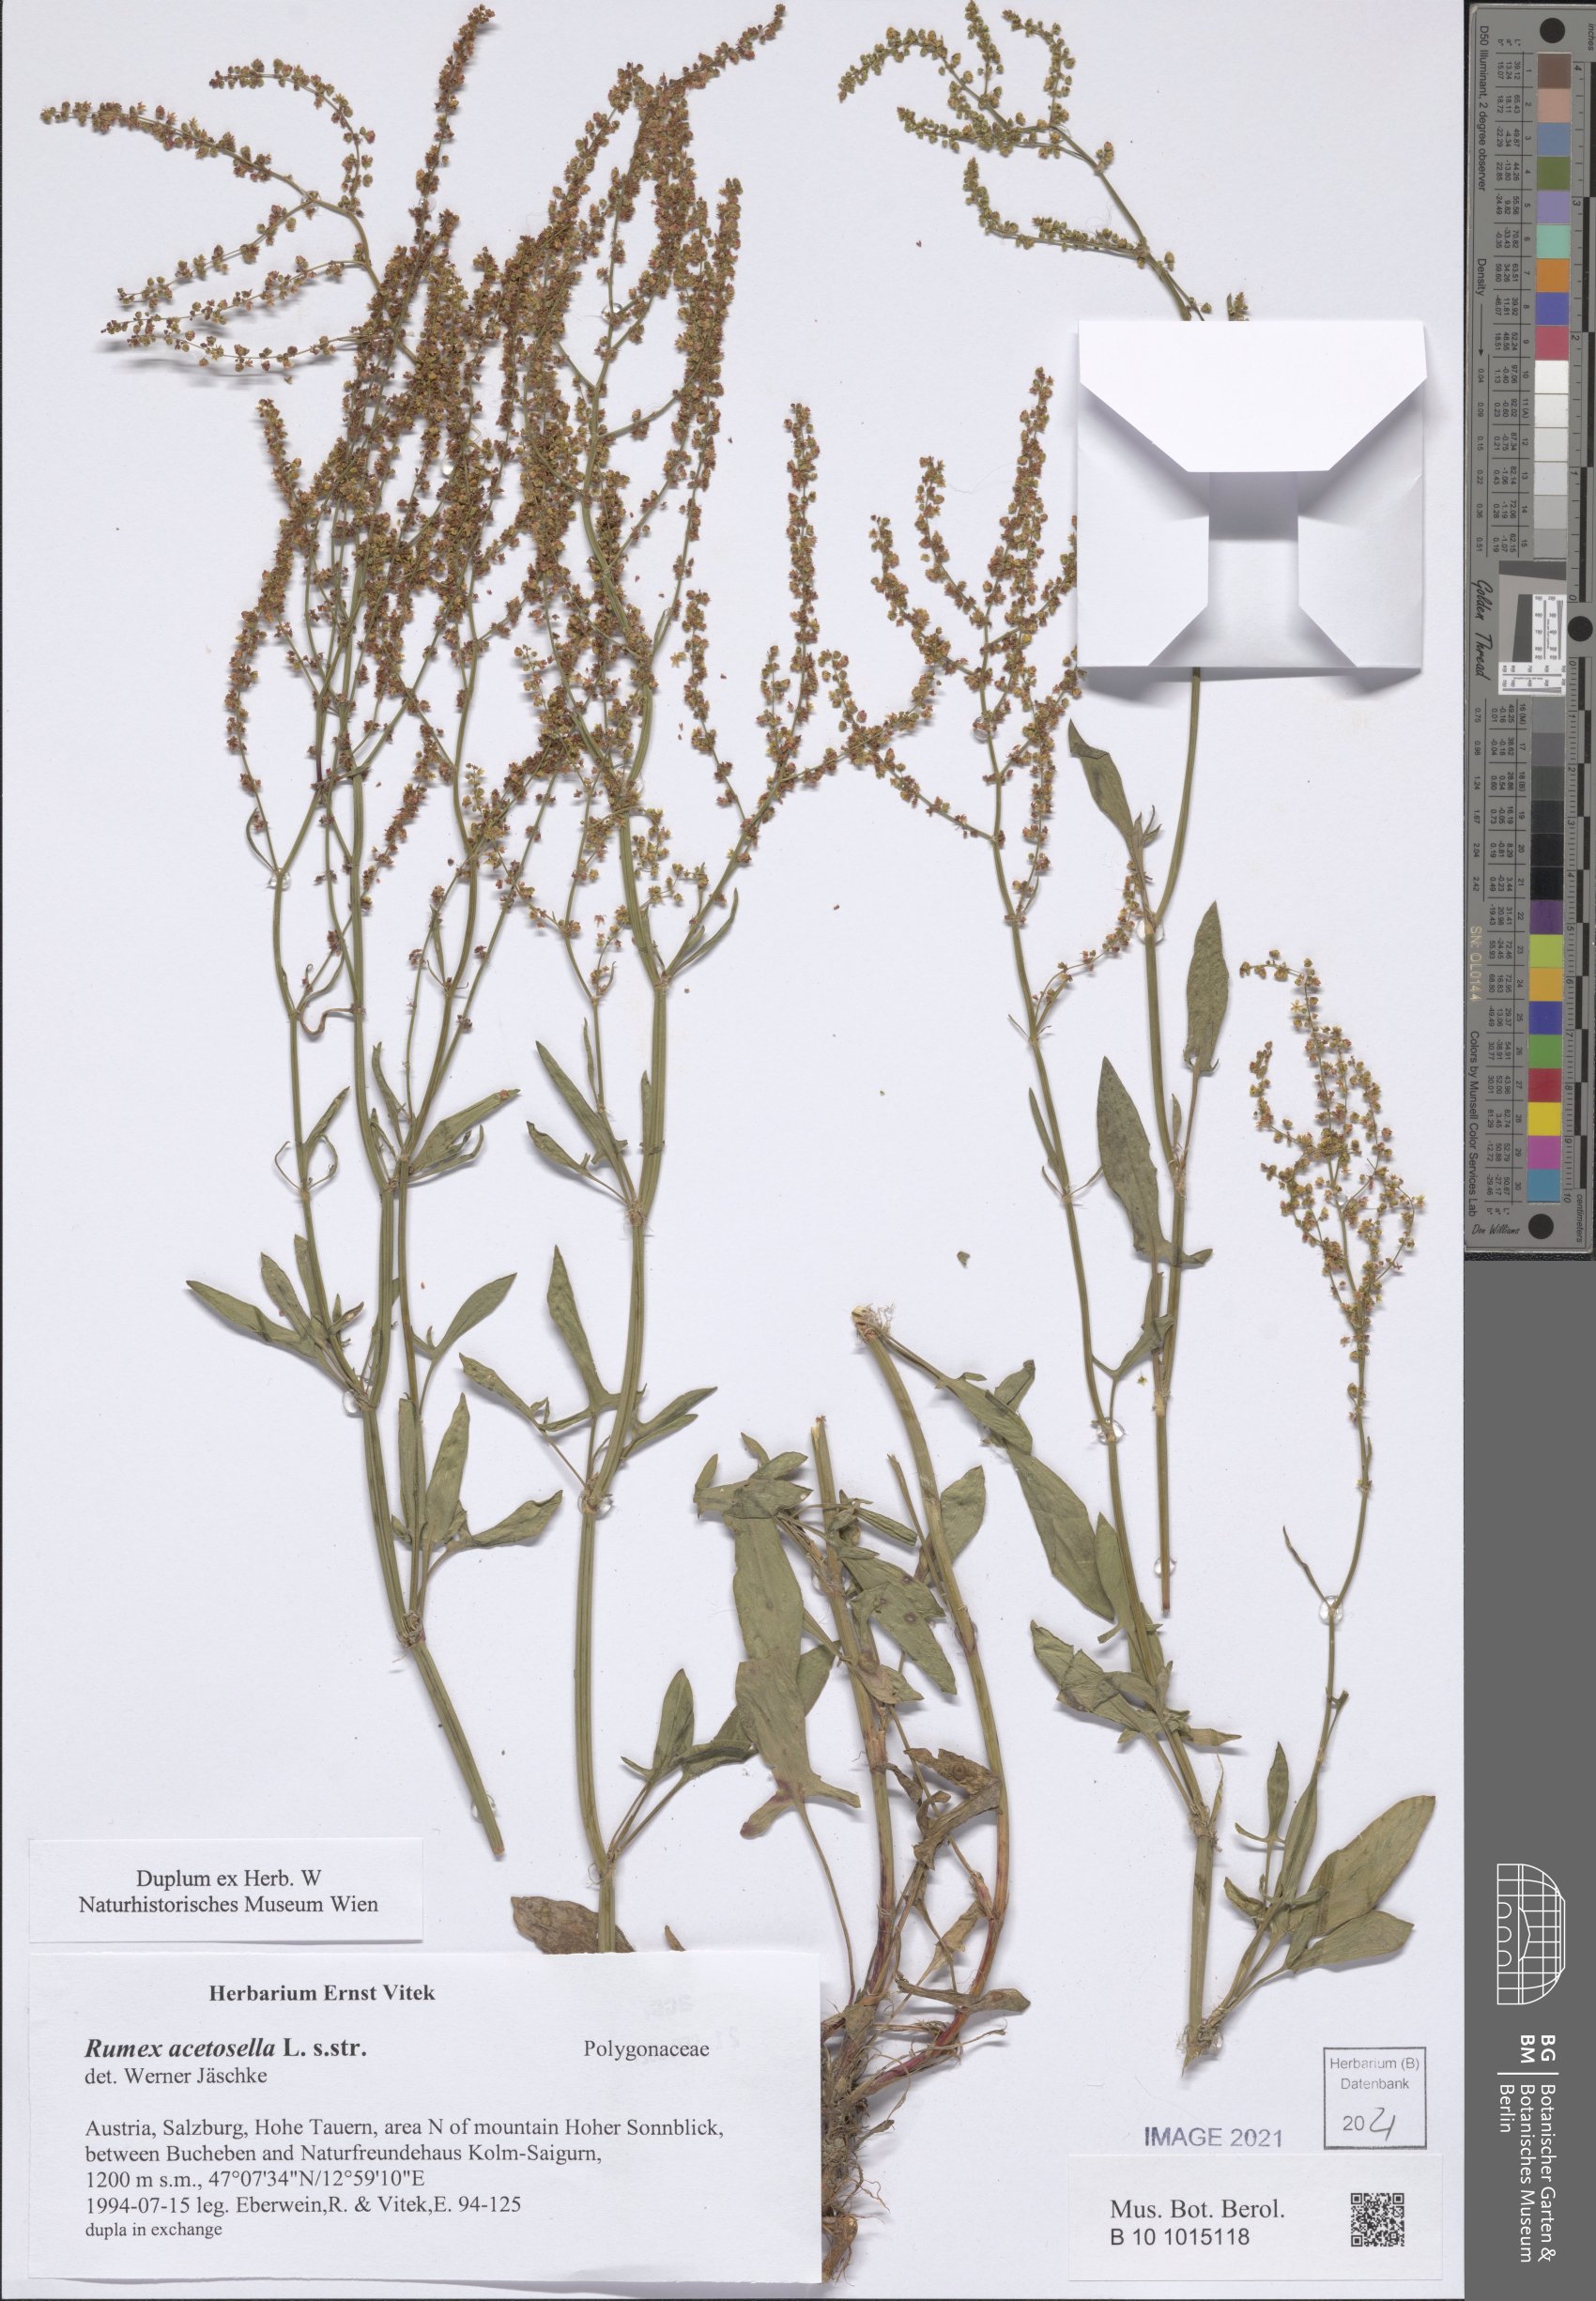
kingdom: Plantae
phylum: Tracheophyta
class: Magnoliopsida
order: Caryophyllales
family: Polygonaceae
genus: Rumex
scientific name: Rumex acetosella
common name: Common sheep sorrel
